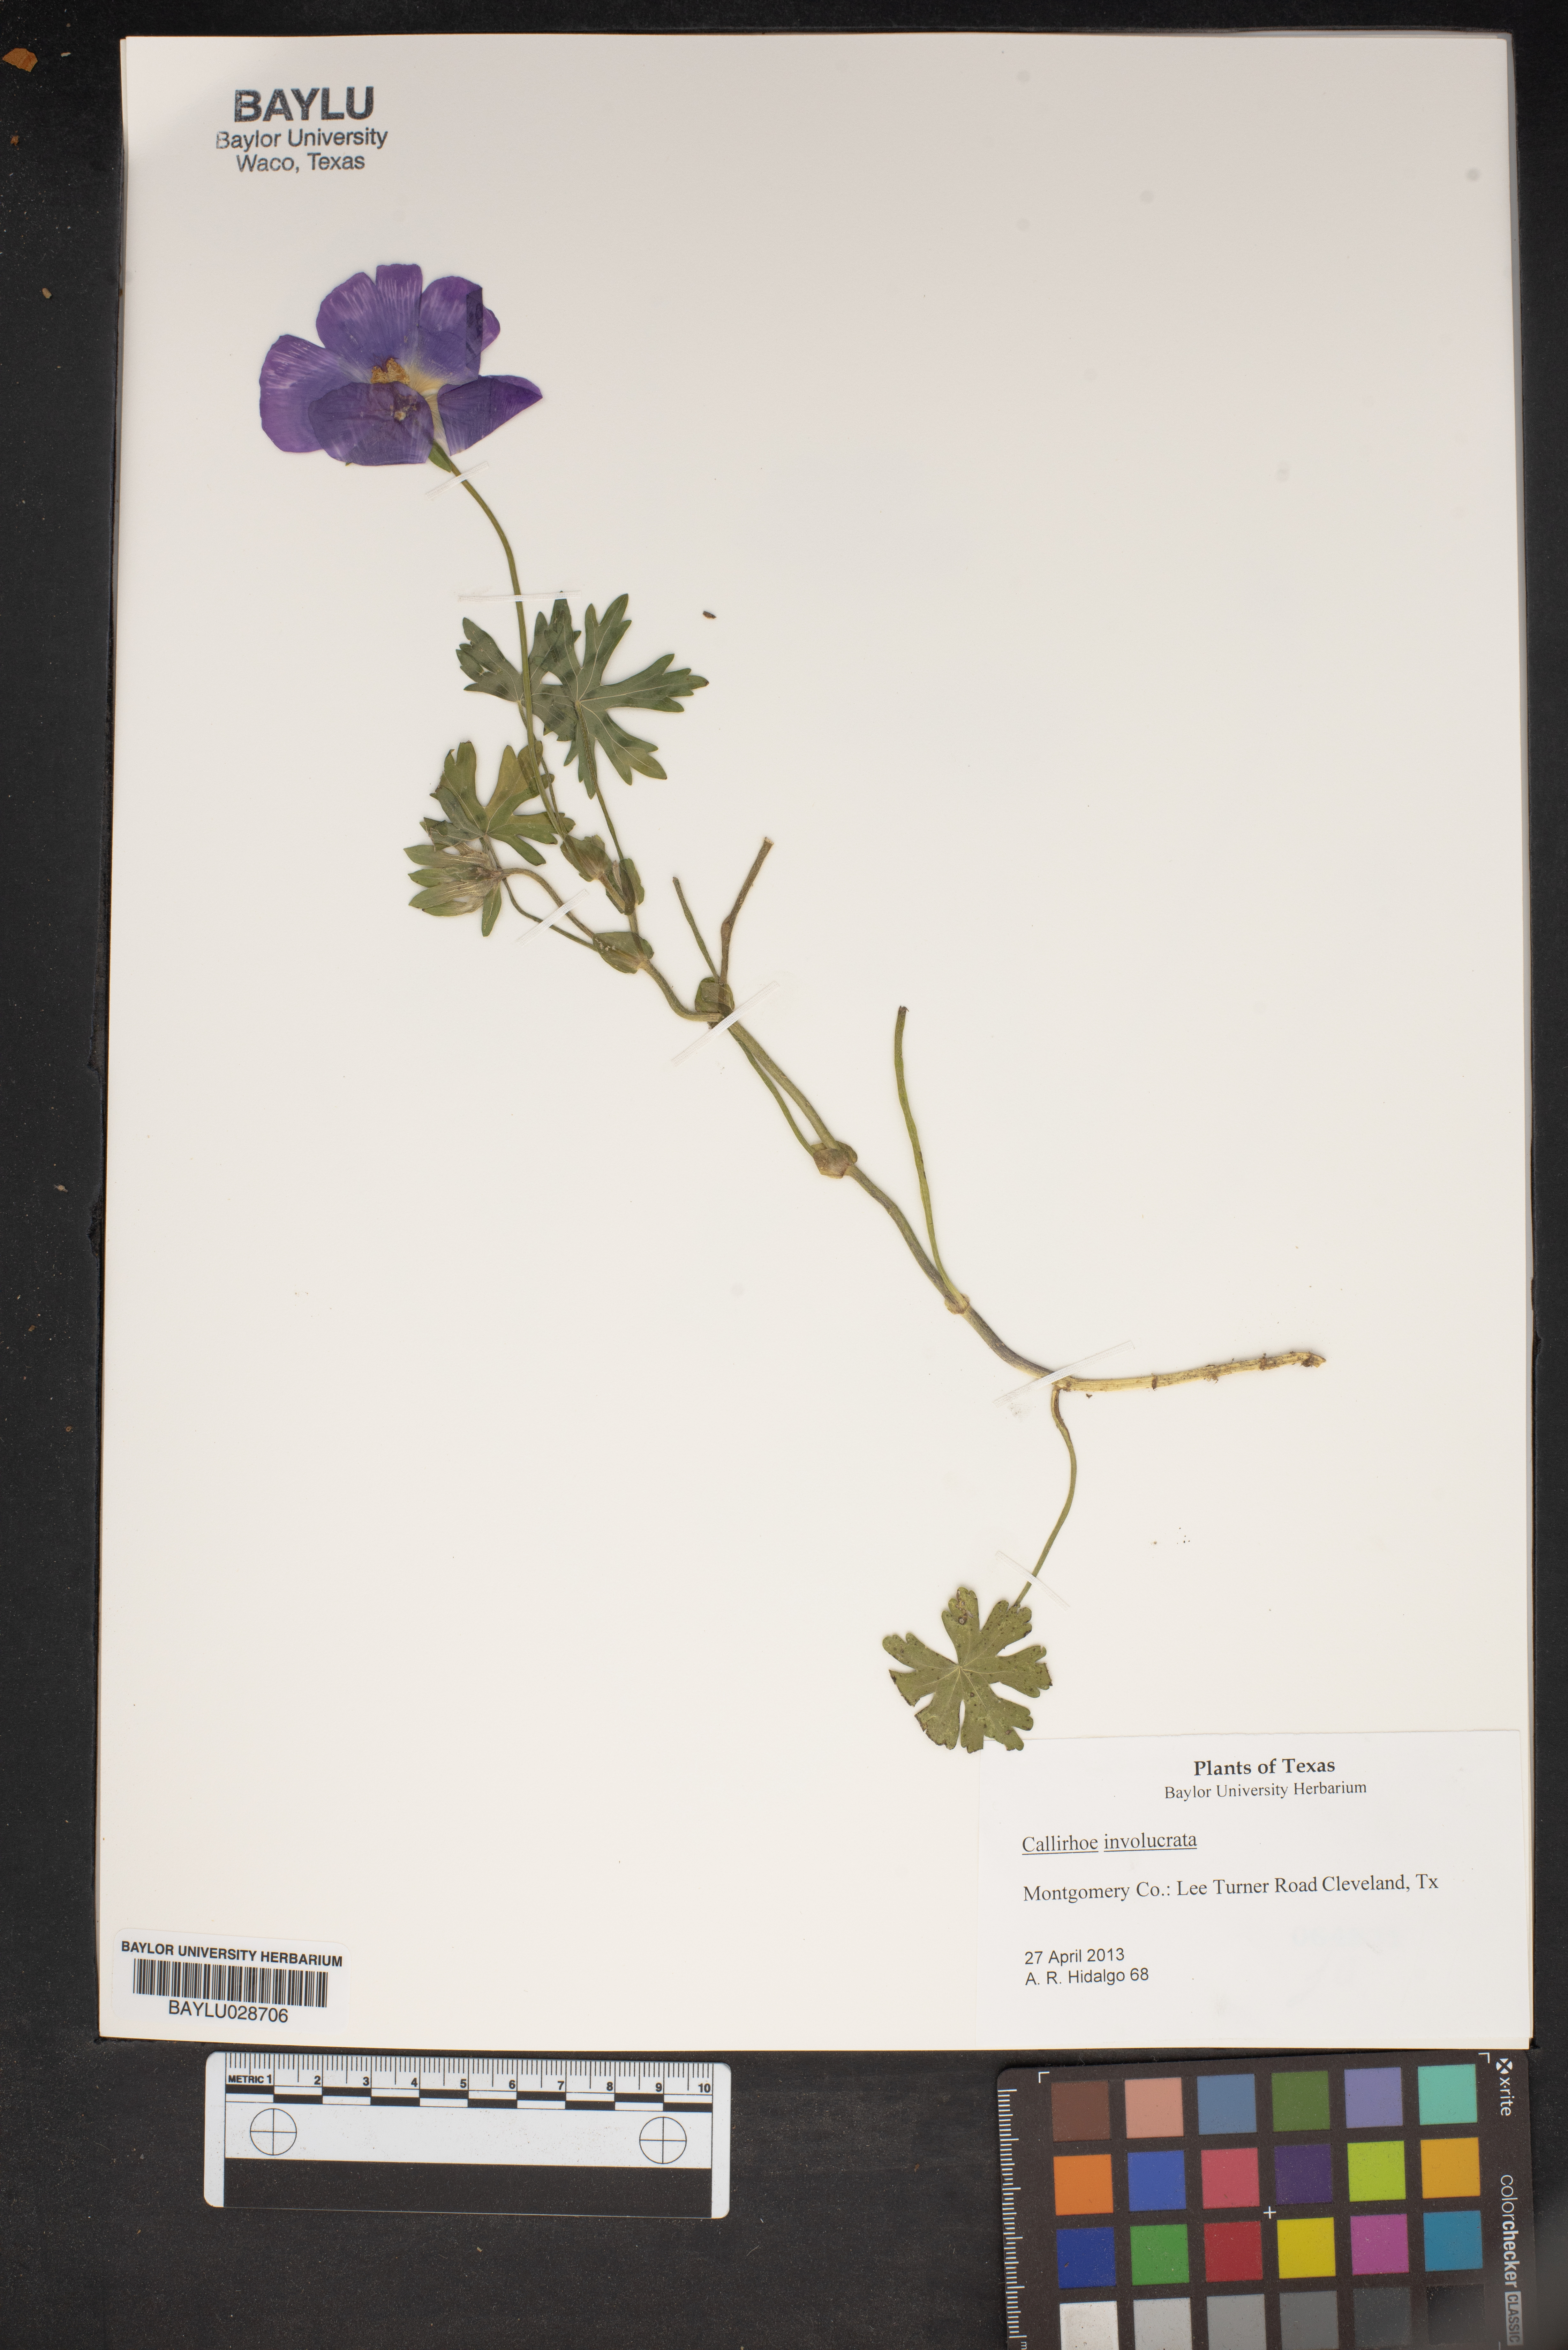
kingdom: Plantae
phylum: Tracheophyta
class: Magnoliopsida
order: Malvales
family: Malvaceae
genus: Callirhoe
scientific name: Callirhoe involucrata
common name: Purple poppy-mallow
